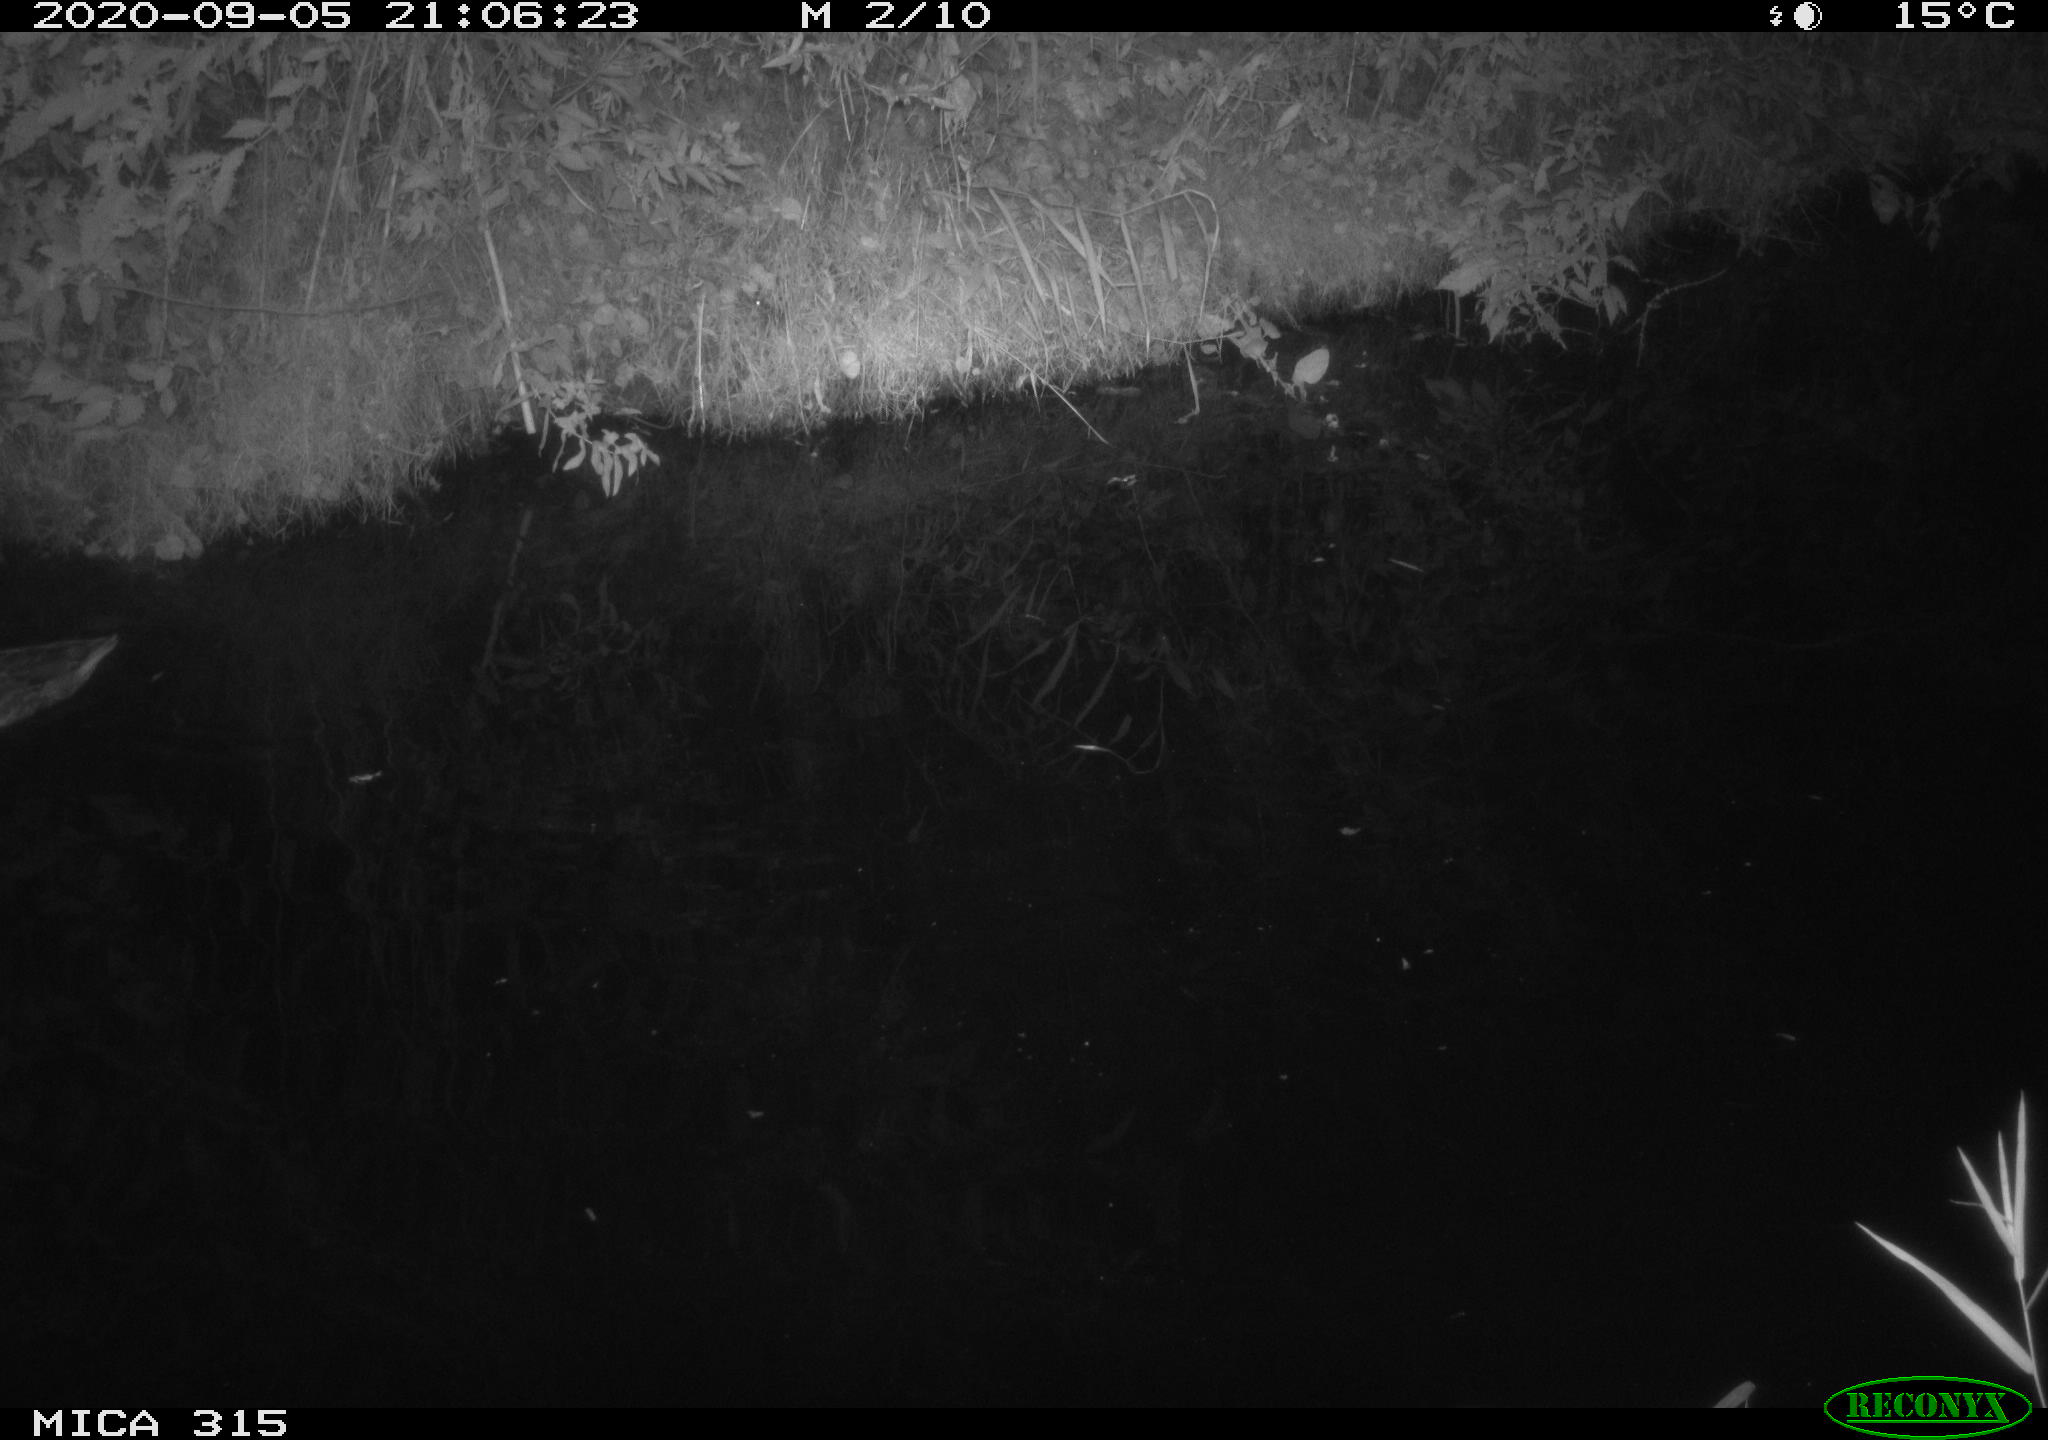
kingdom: Animalia
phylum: Chordata
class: Aves
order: Anseriformes
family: Anatidae
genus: Anas
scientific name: Anas platyrhynchos
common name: Mallard
